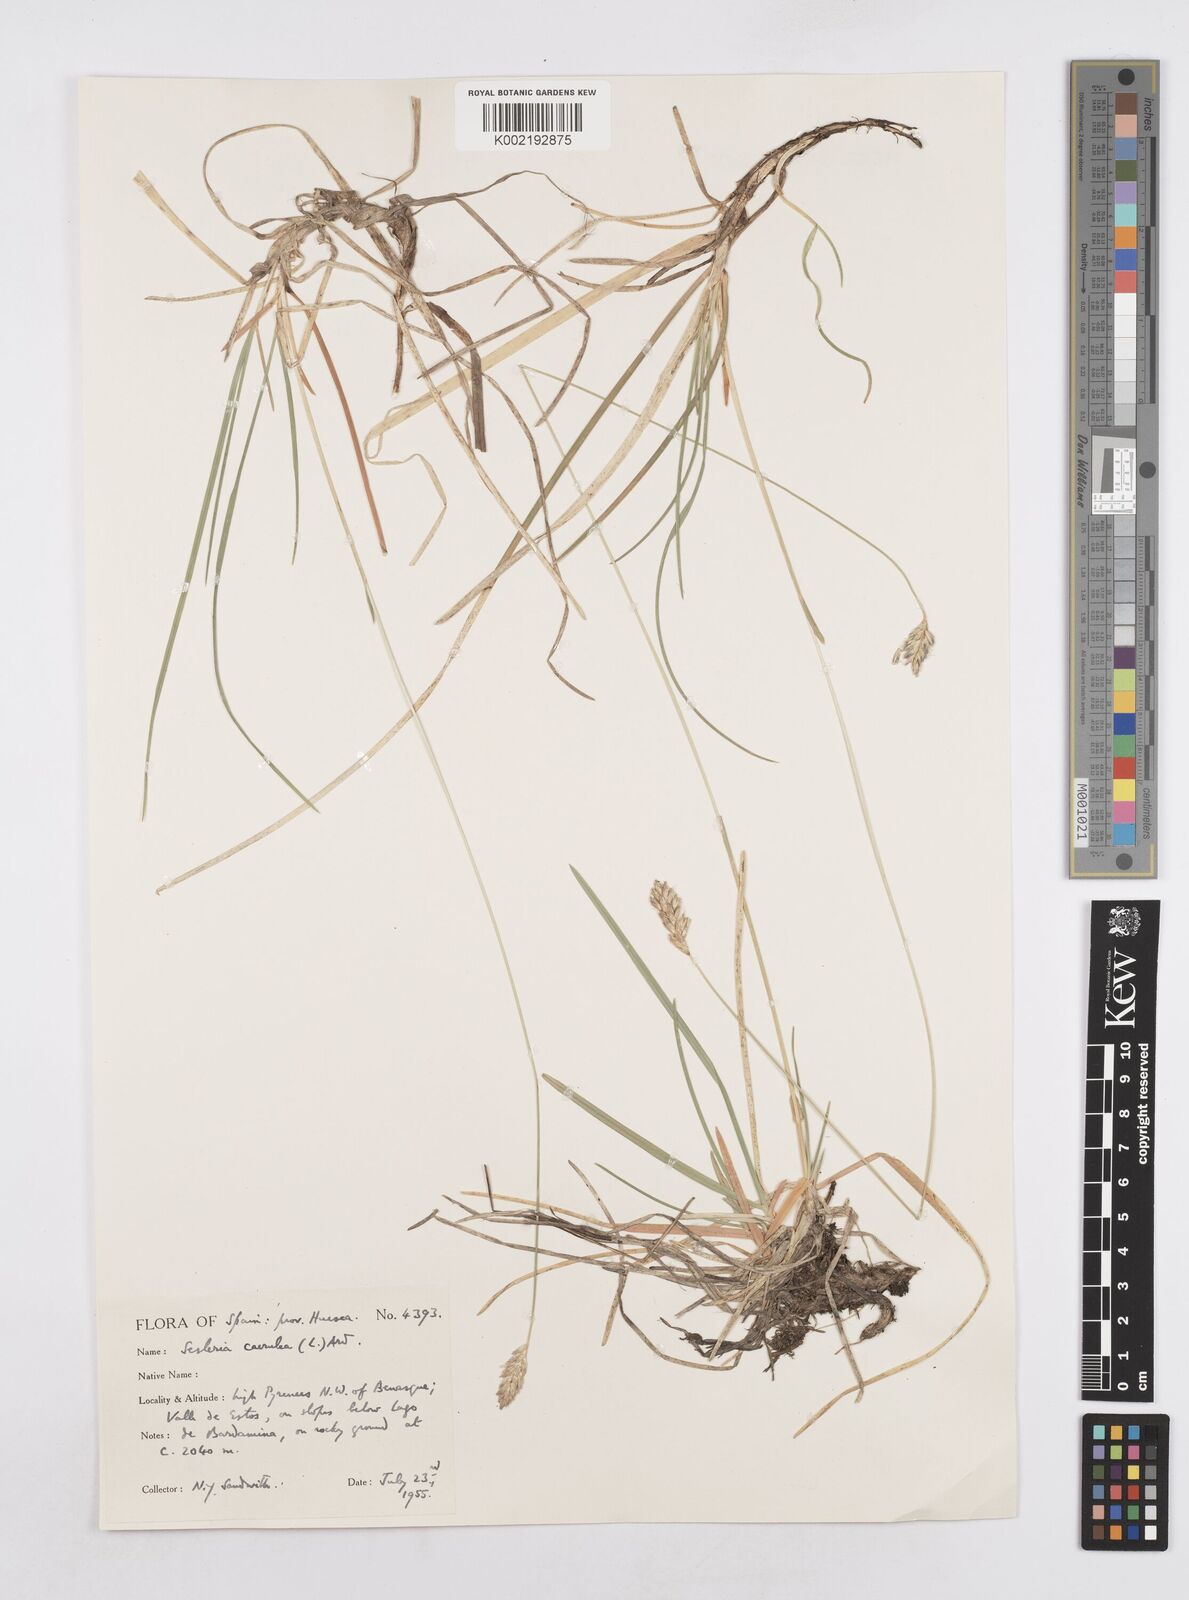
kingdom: Plantae
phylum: Tracheophyta
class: Liliopsida
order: Poales
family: Poaceae
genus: Sesleria
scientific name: Sesleria albicans
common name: Blue moor-grass
